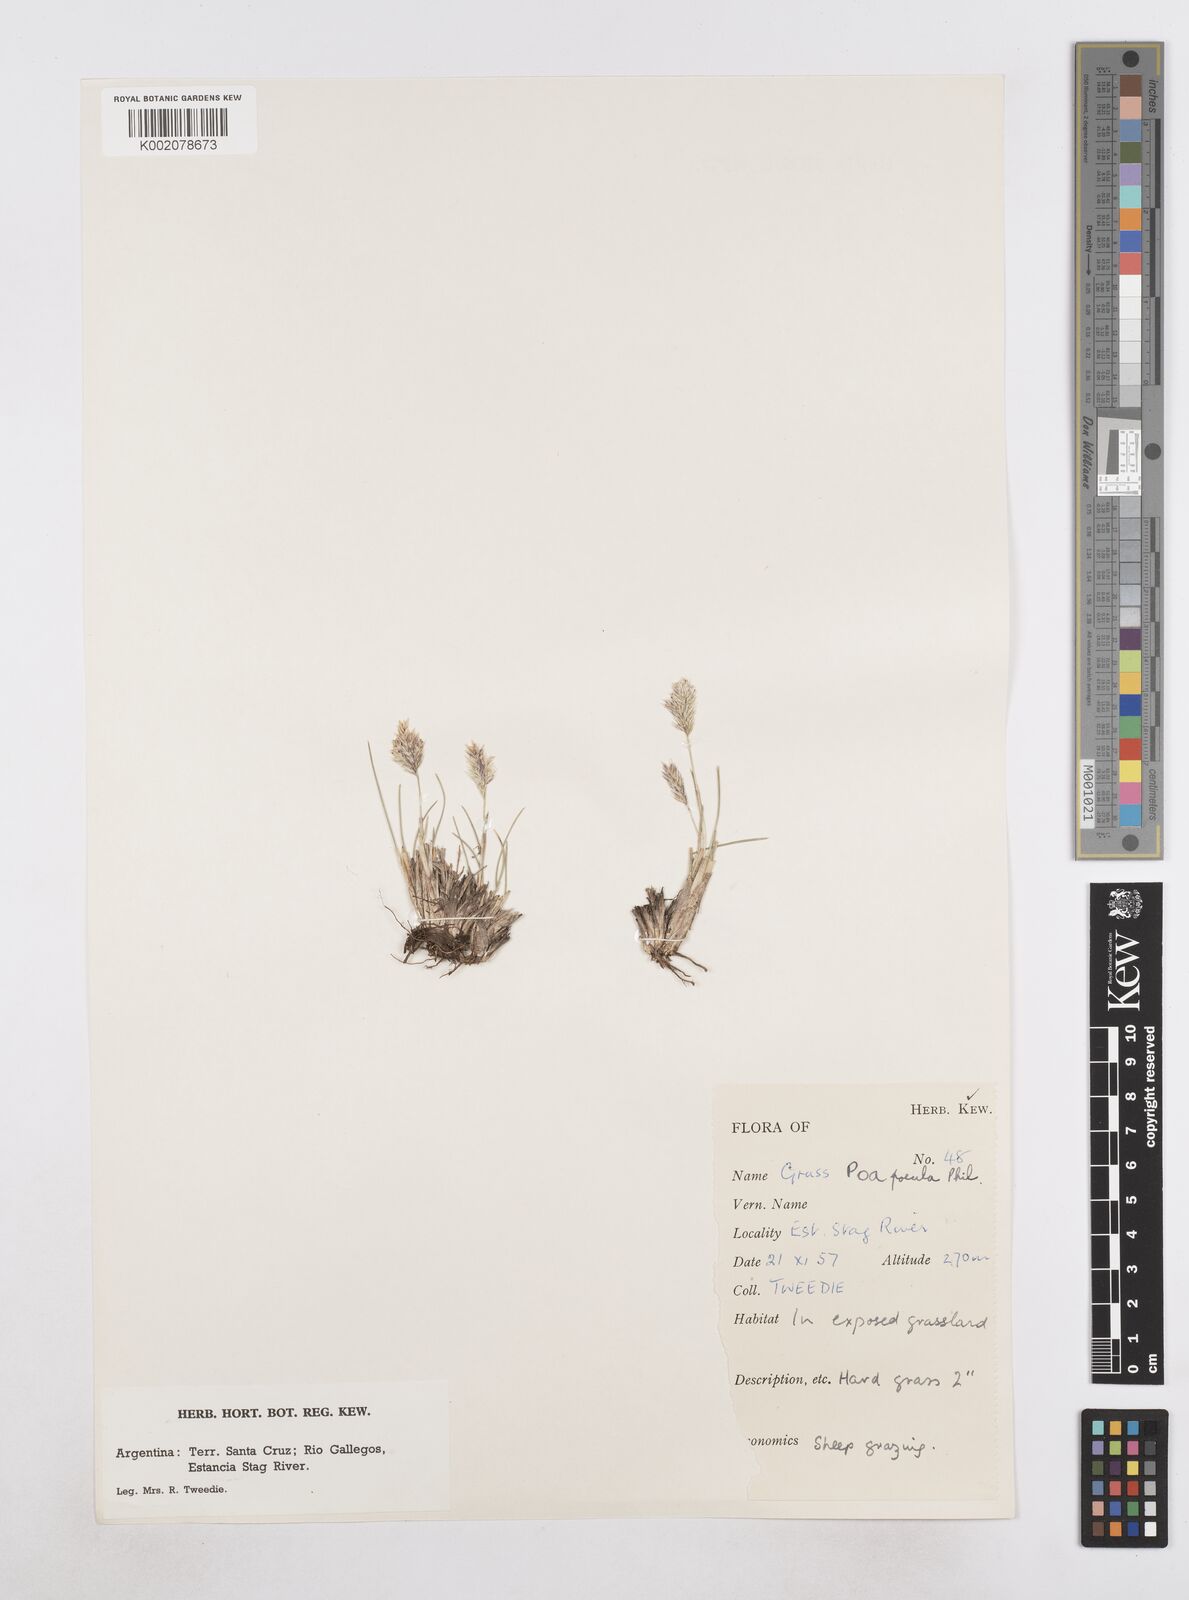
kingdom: Plantae
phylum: Tracheophyta
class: Liliopsida
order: Poales
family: Poaceae
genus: Poa
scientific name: Poa spiciformis
